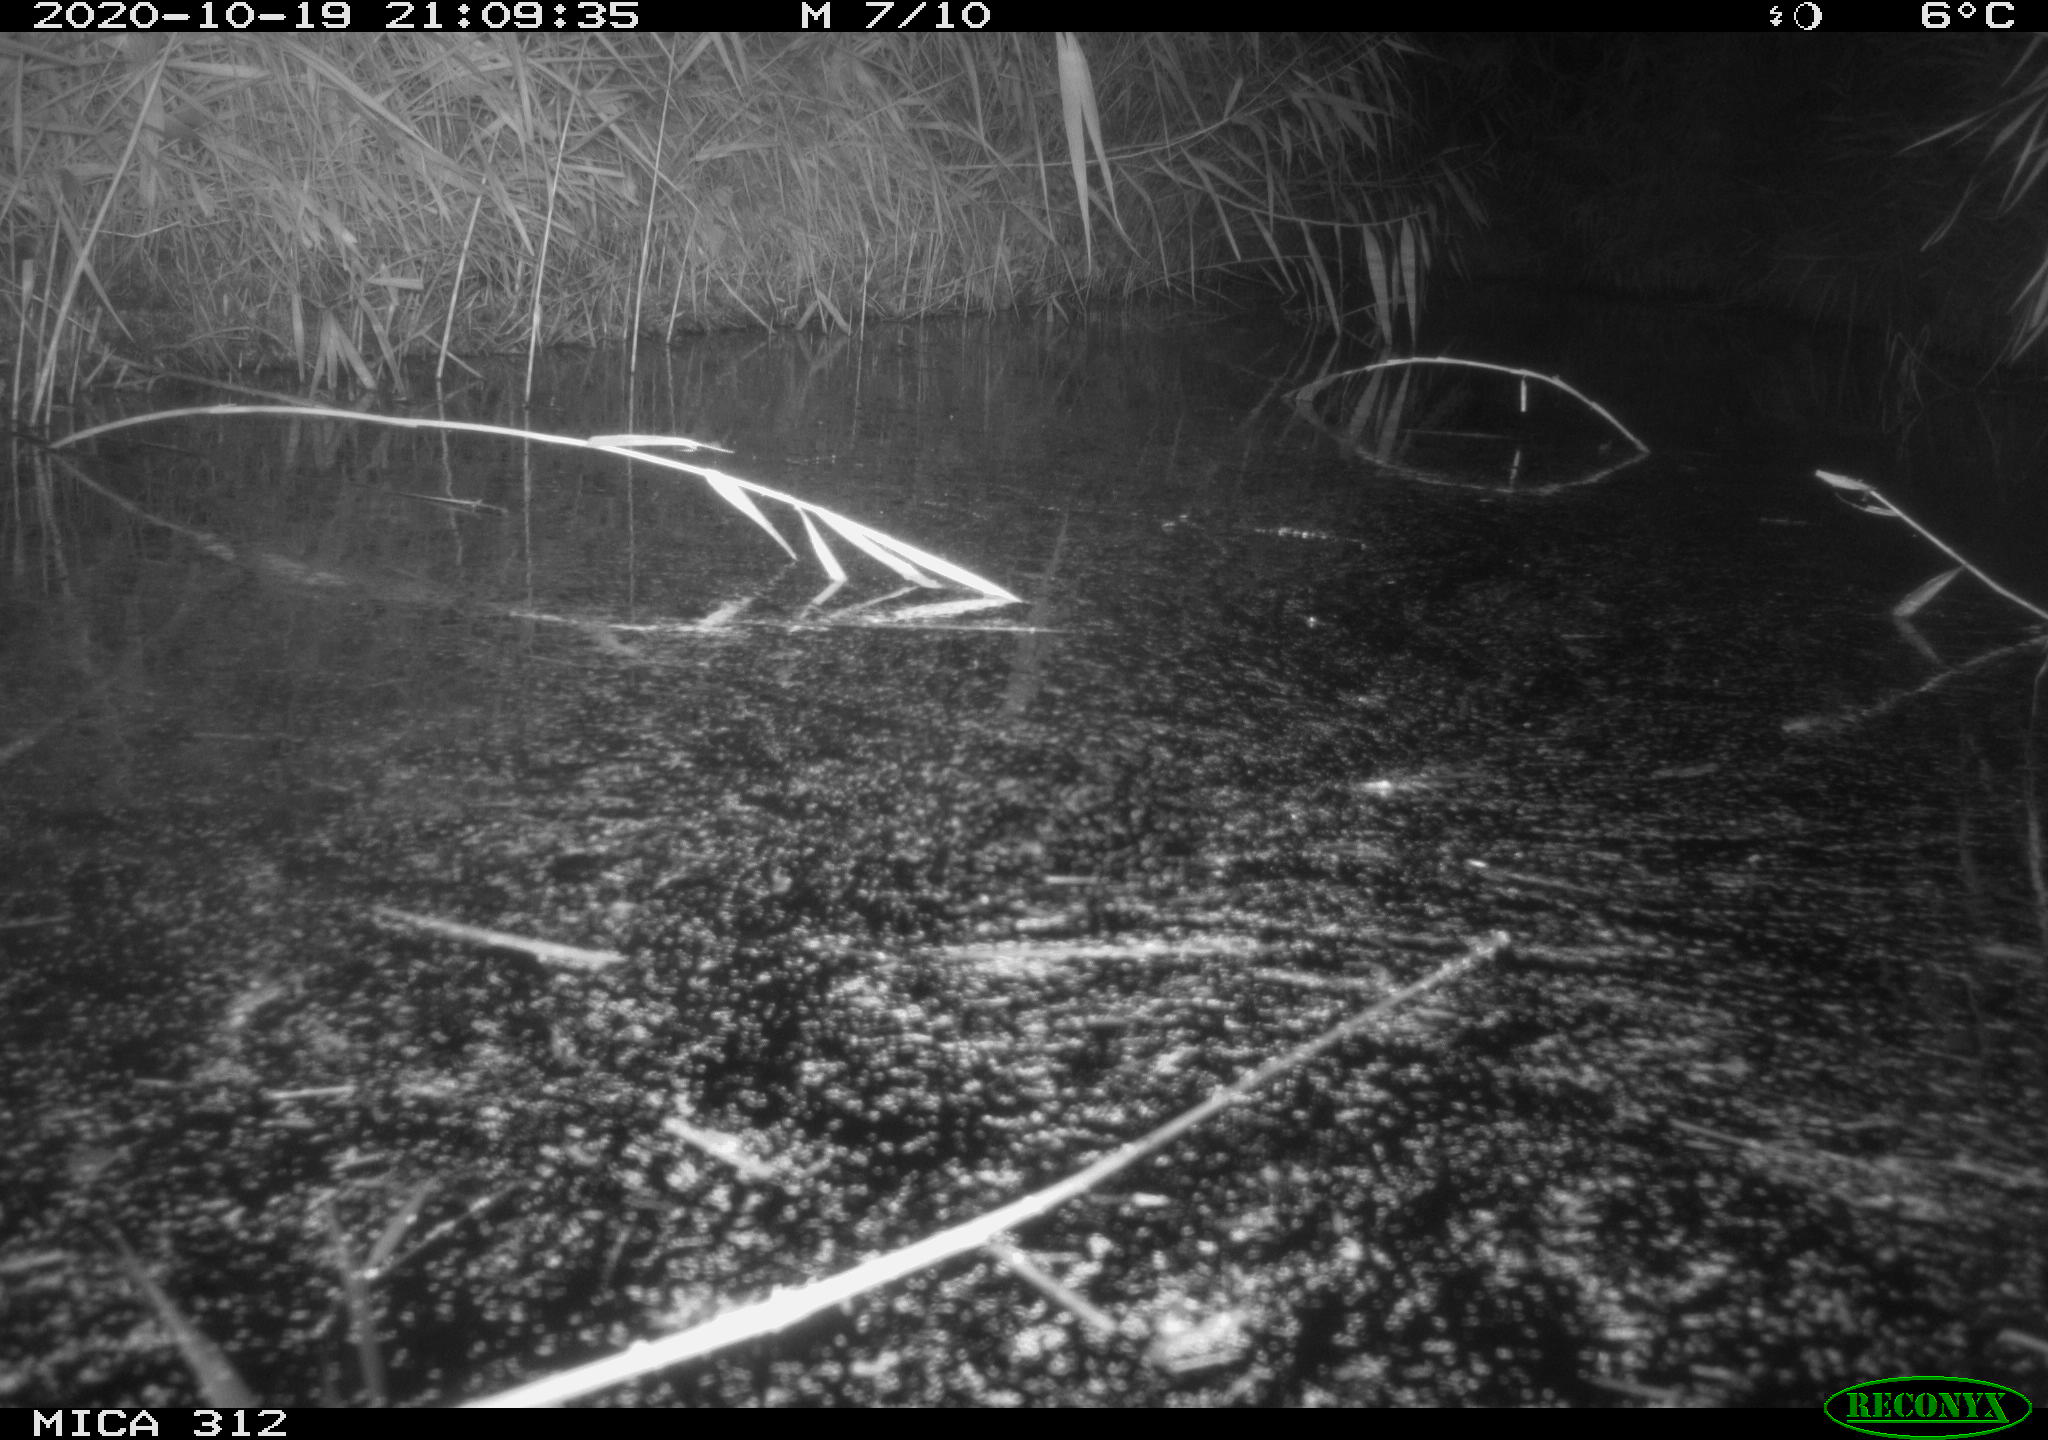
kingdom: Animalia
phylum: Chordata
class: Mammalia
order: Rodentia
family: Muridae
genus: Rattus
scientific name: Rattus norvegicus
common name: Brown rat
